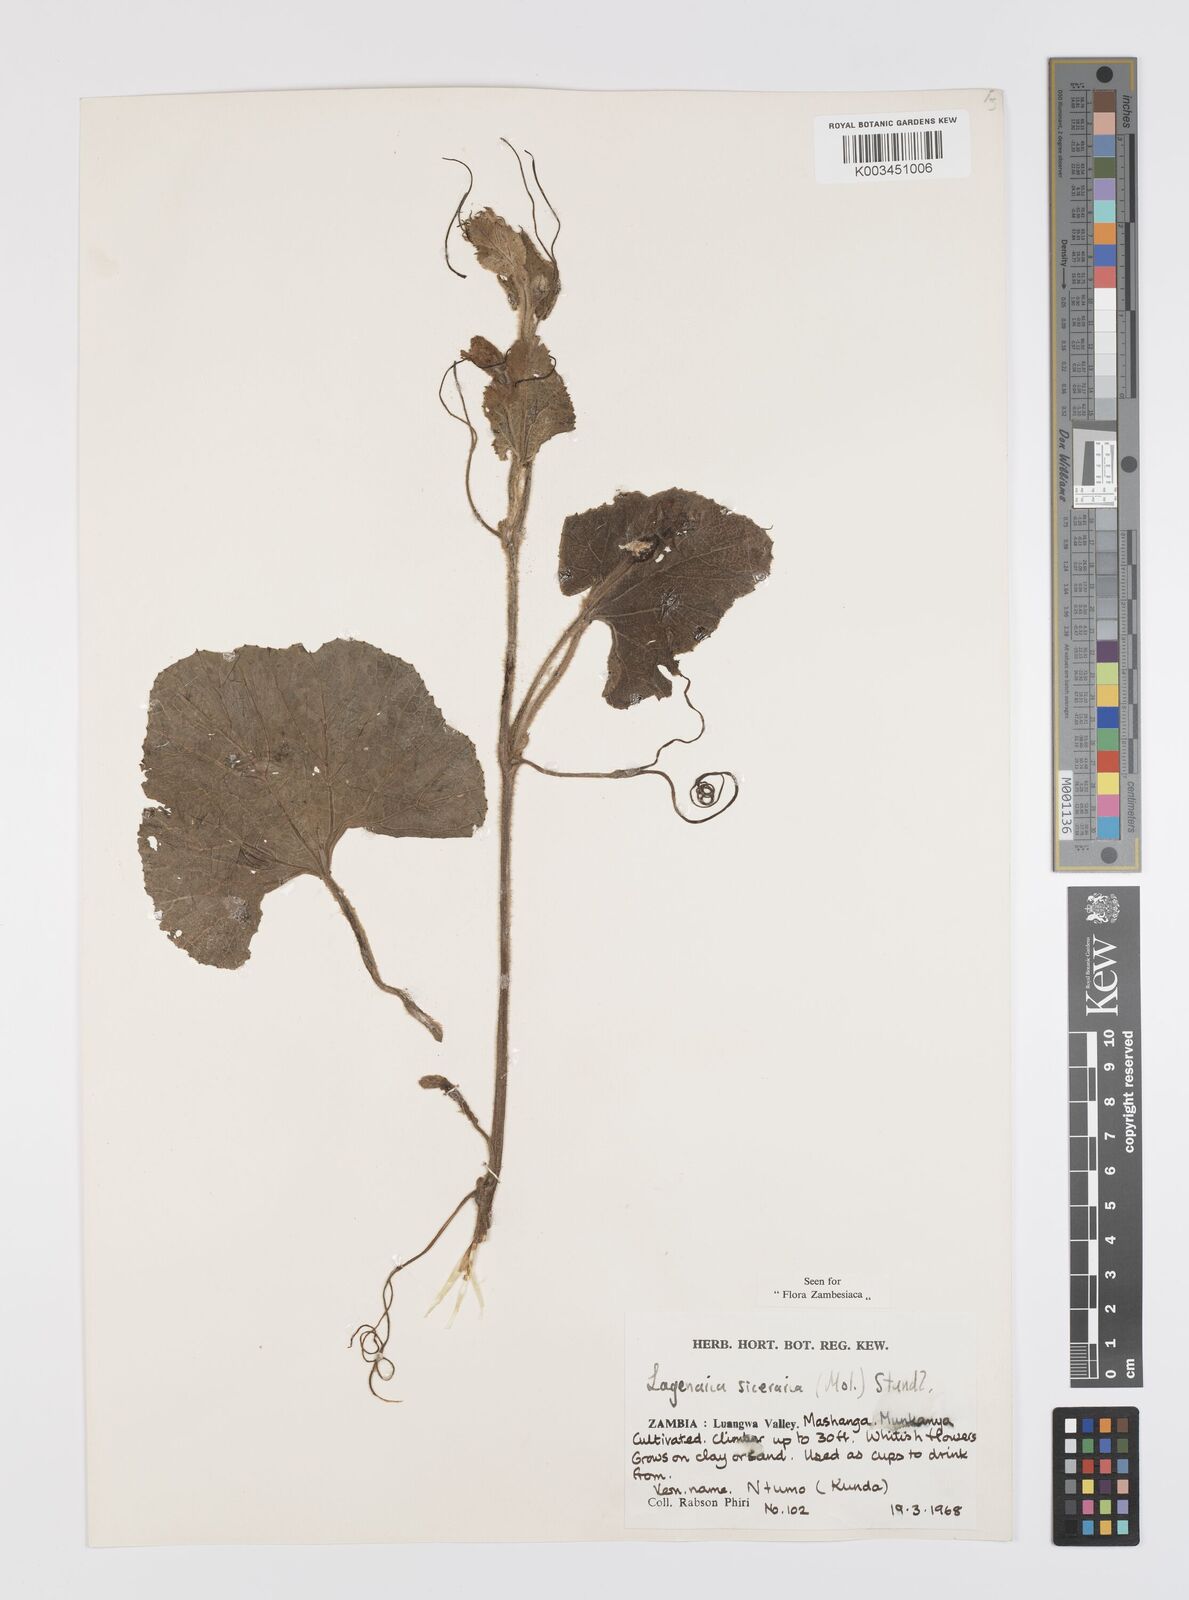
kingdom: Plantae
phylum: Tracheophyta
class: Magnoliopsida
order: Cucurbitales
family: Cucurbitaceae
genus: Lagenaria
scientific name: Lagenaria siceraria
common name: Bottle gourd
